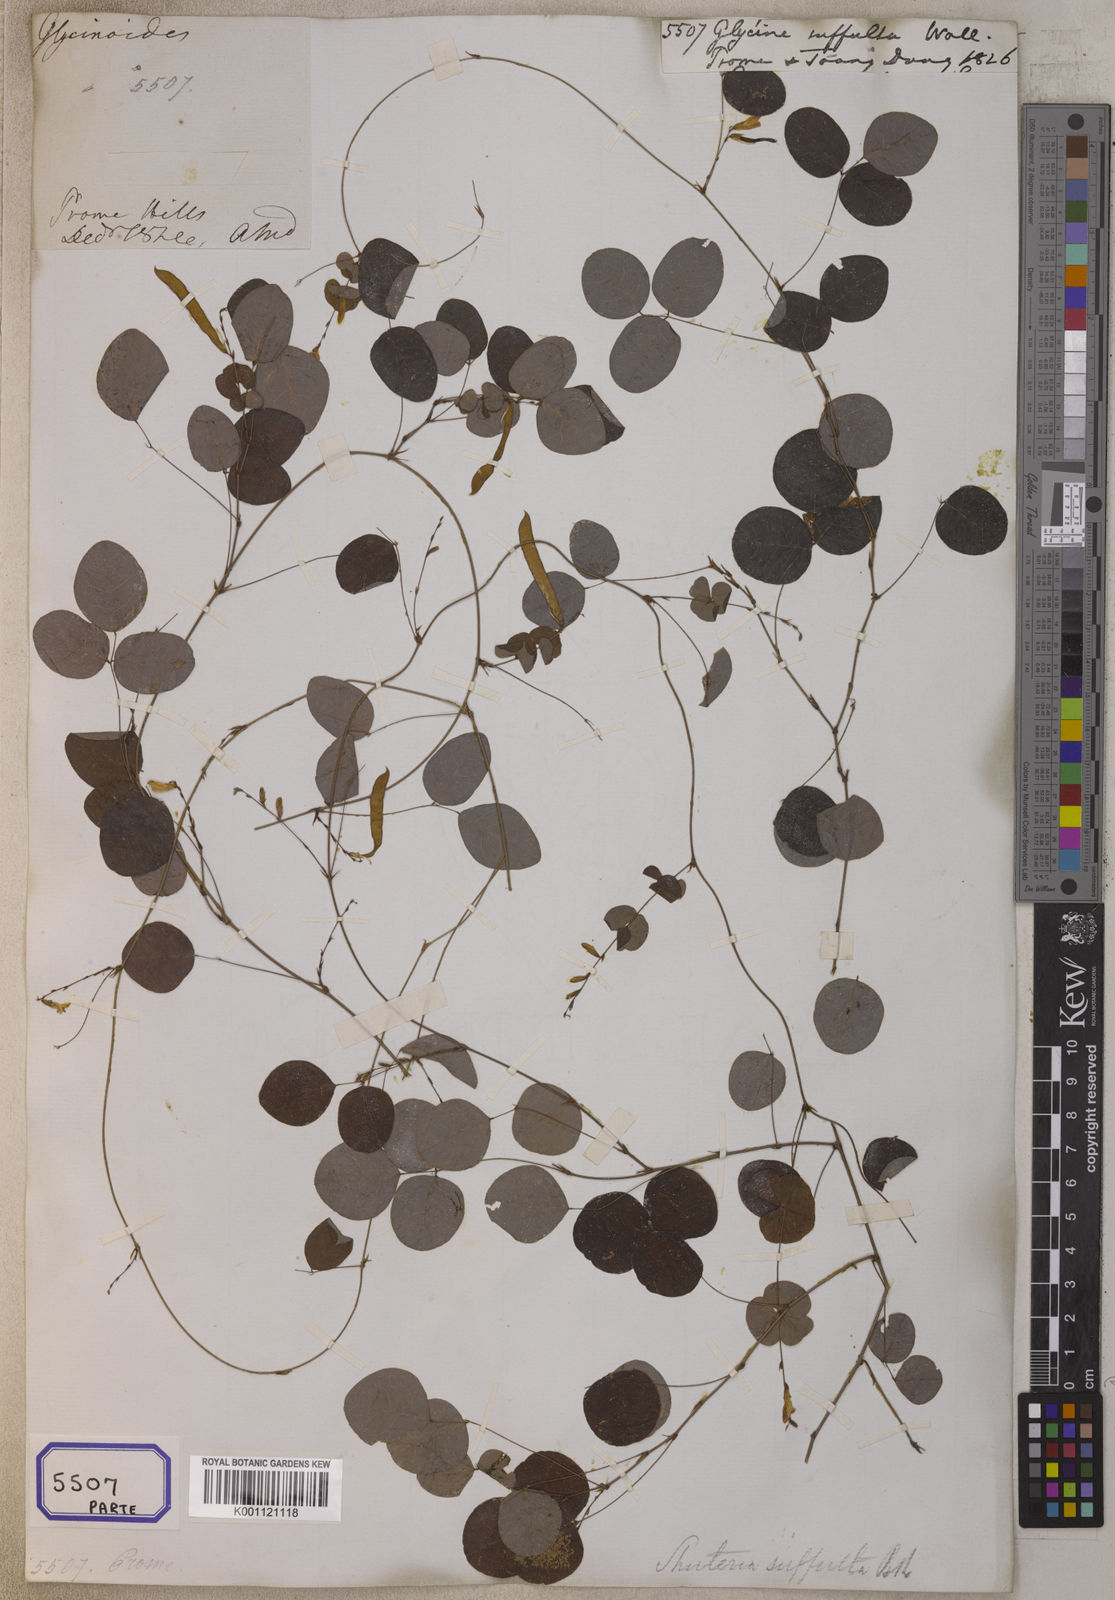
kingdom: Plantae
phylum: Tracheophyta
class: Magnoliopsida
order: Fabales
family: Fabaceae
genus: Shuteria
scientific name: Shuteria suffulta
